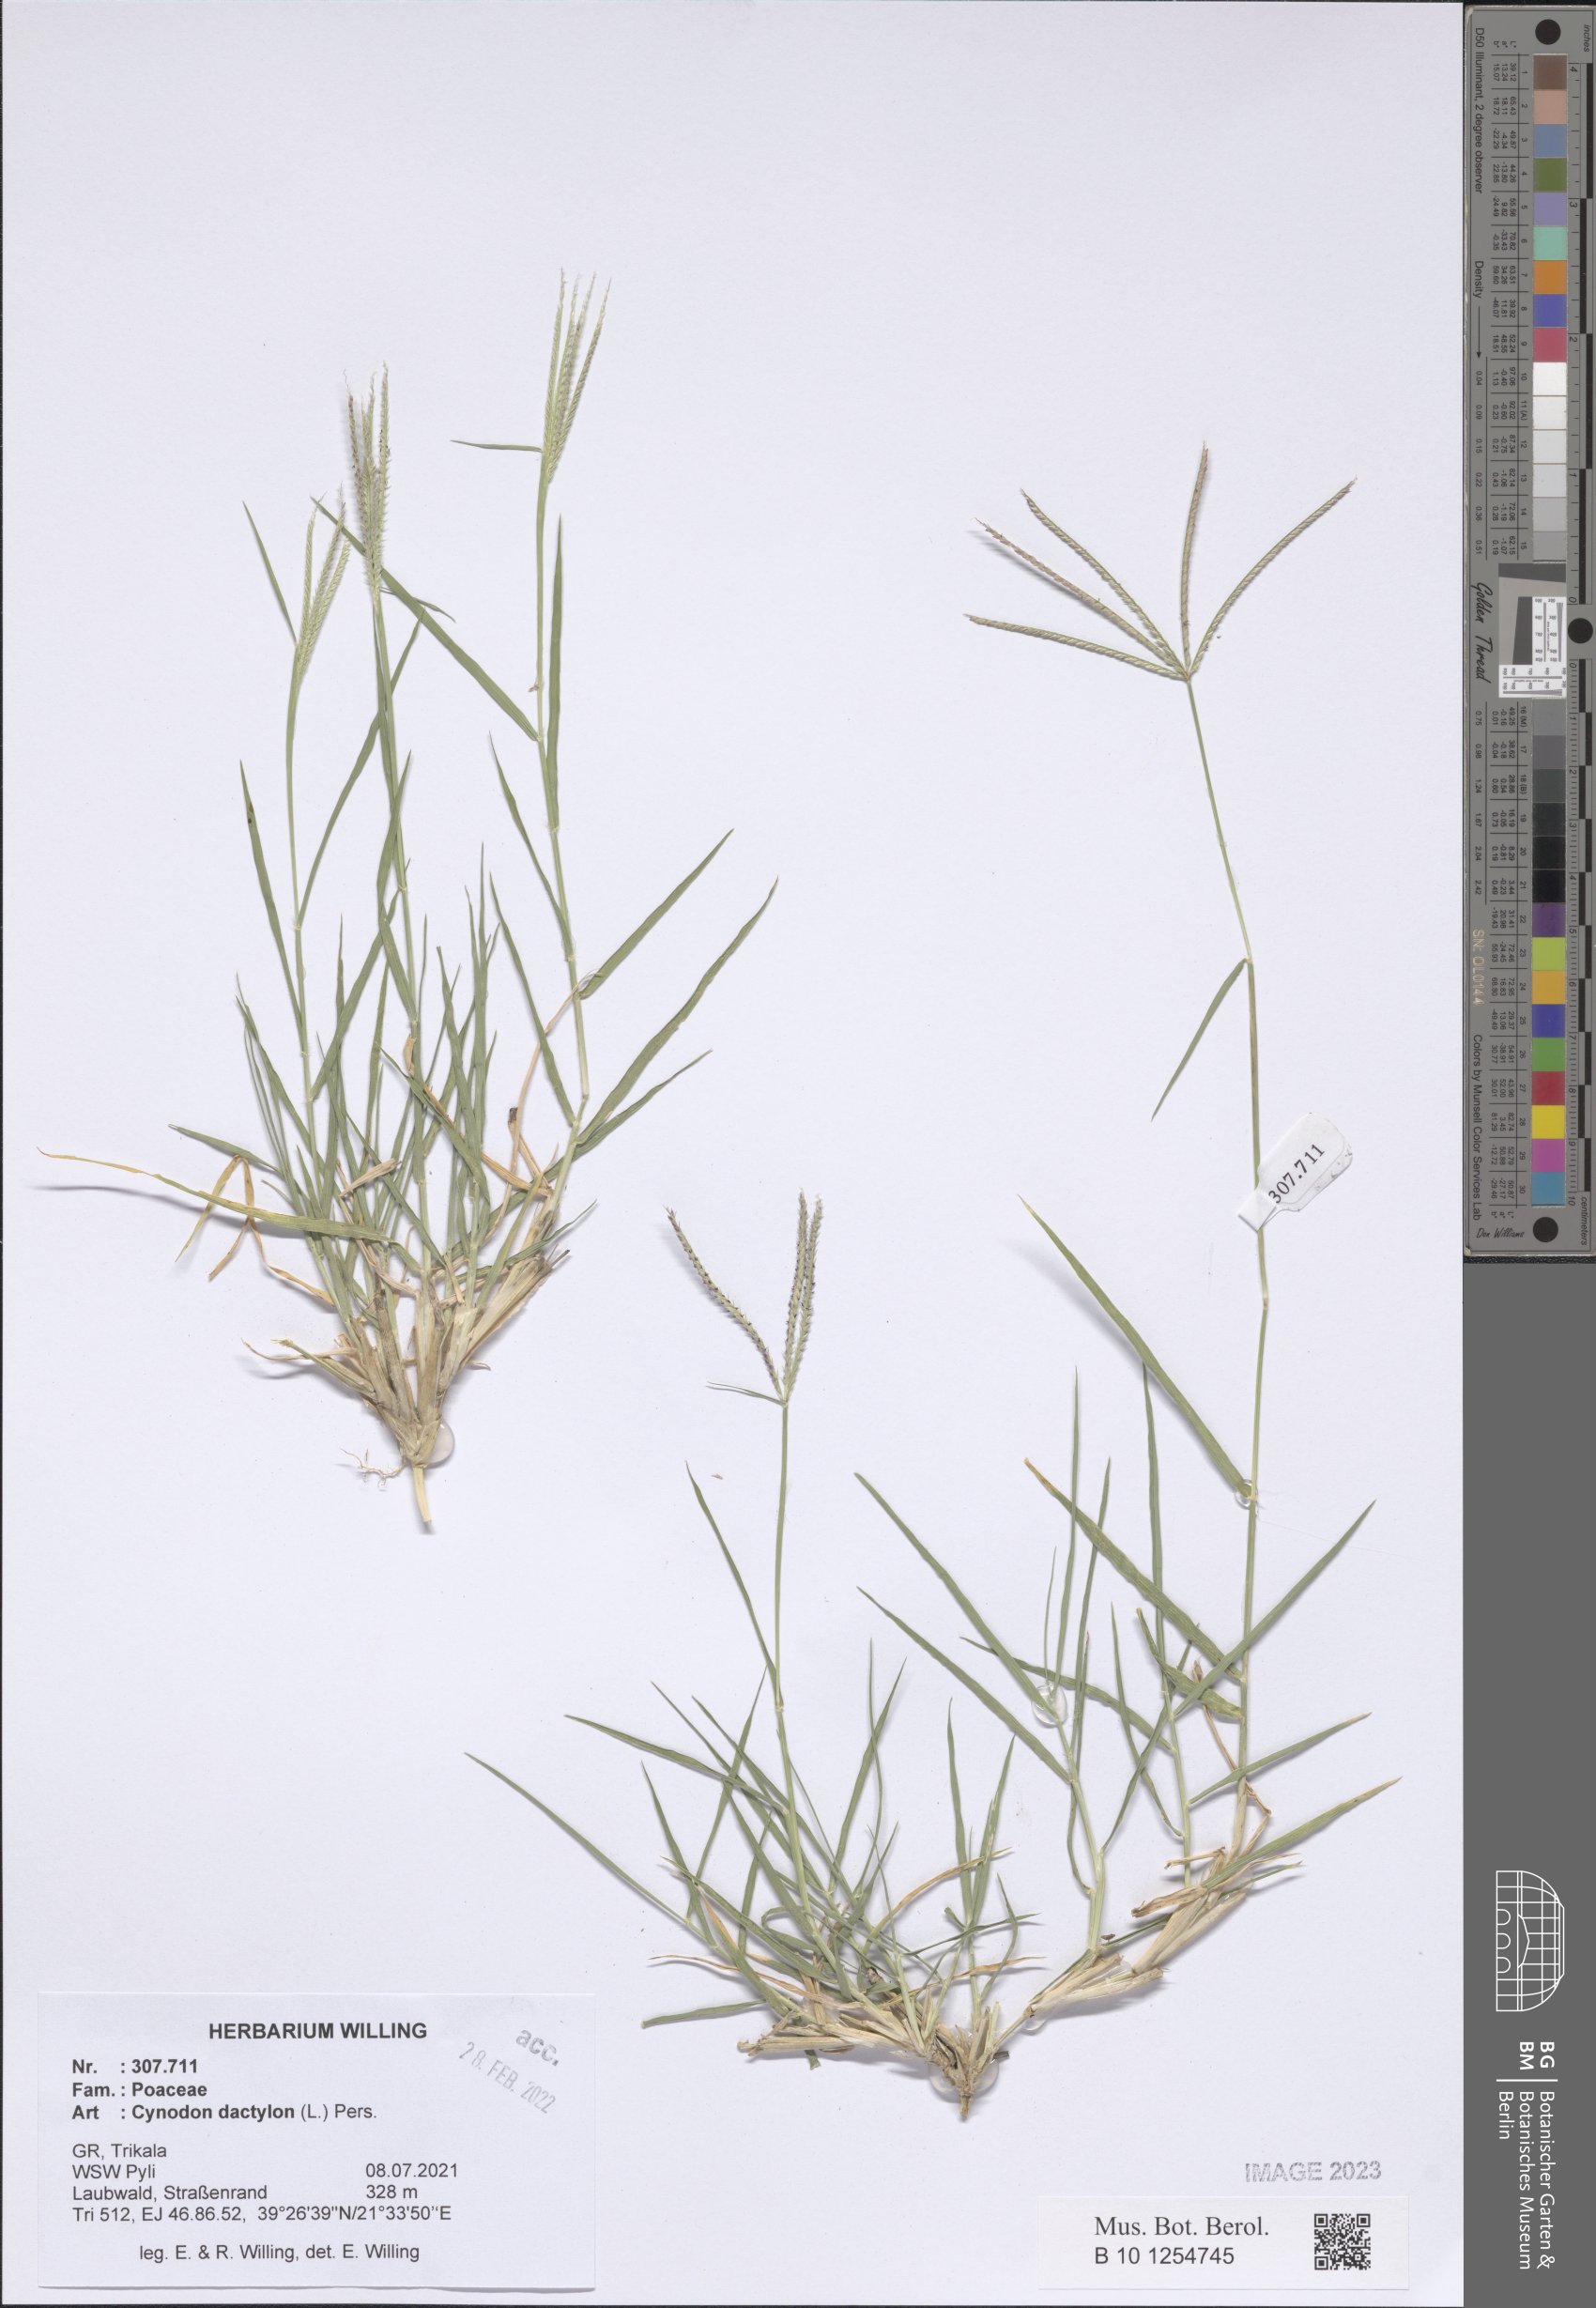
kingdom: Plantae
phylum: Tracheophyta
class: Liliopsida
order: Poales
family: Poaceae
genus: Cynodon
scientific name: Cynodon dactylon
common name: Bermuda grass
